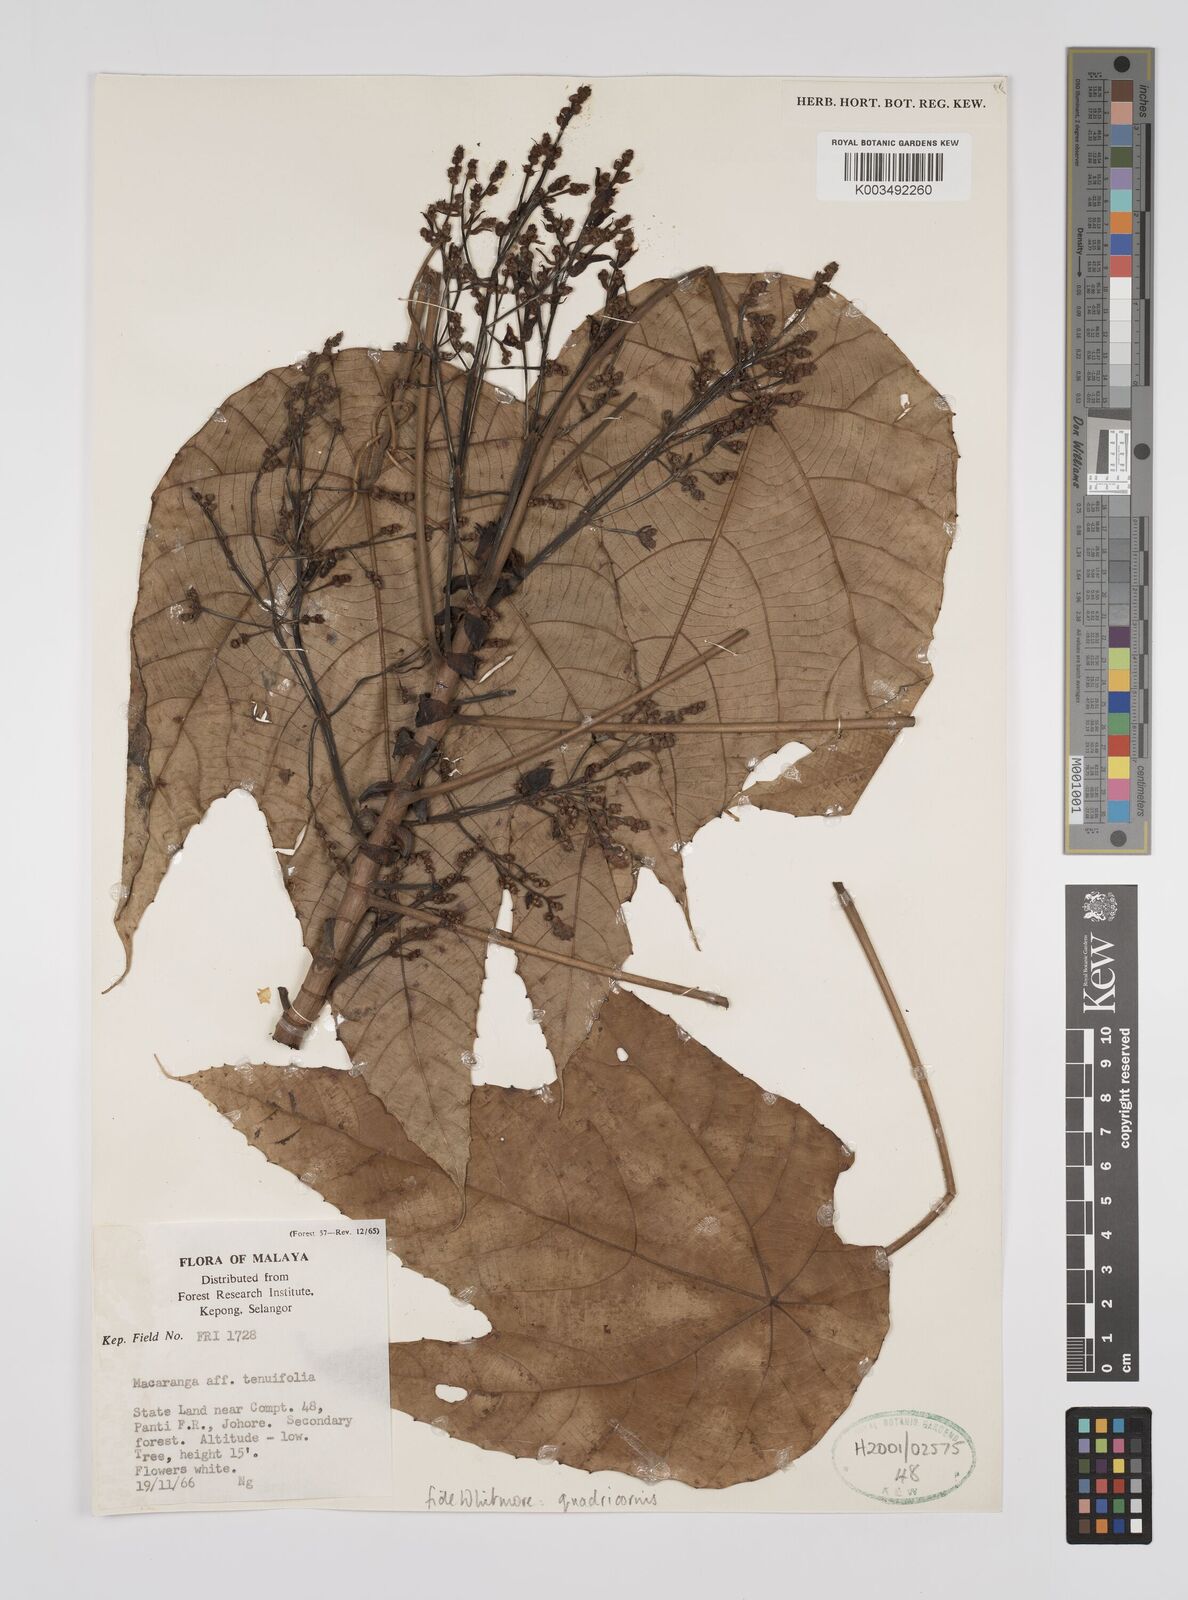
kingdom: Plantae
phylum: Tracheophyta
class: Magnoliopsida
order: Malpighiales
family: Euphorbiaceae
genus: Macaranga
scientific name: Macaranga triloba
